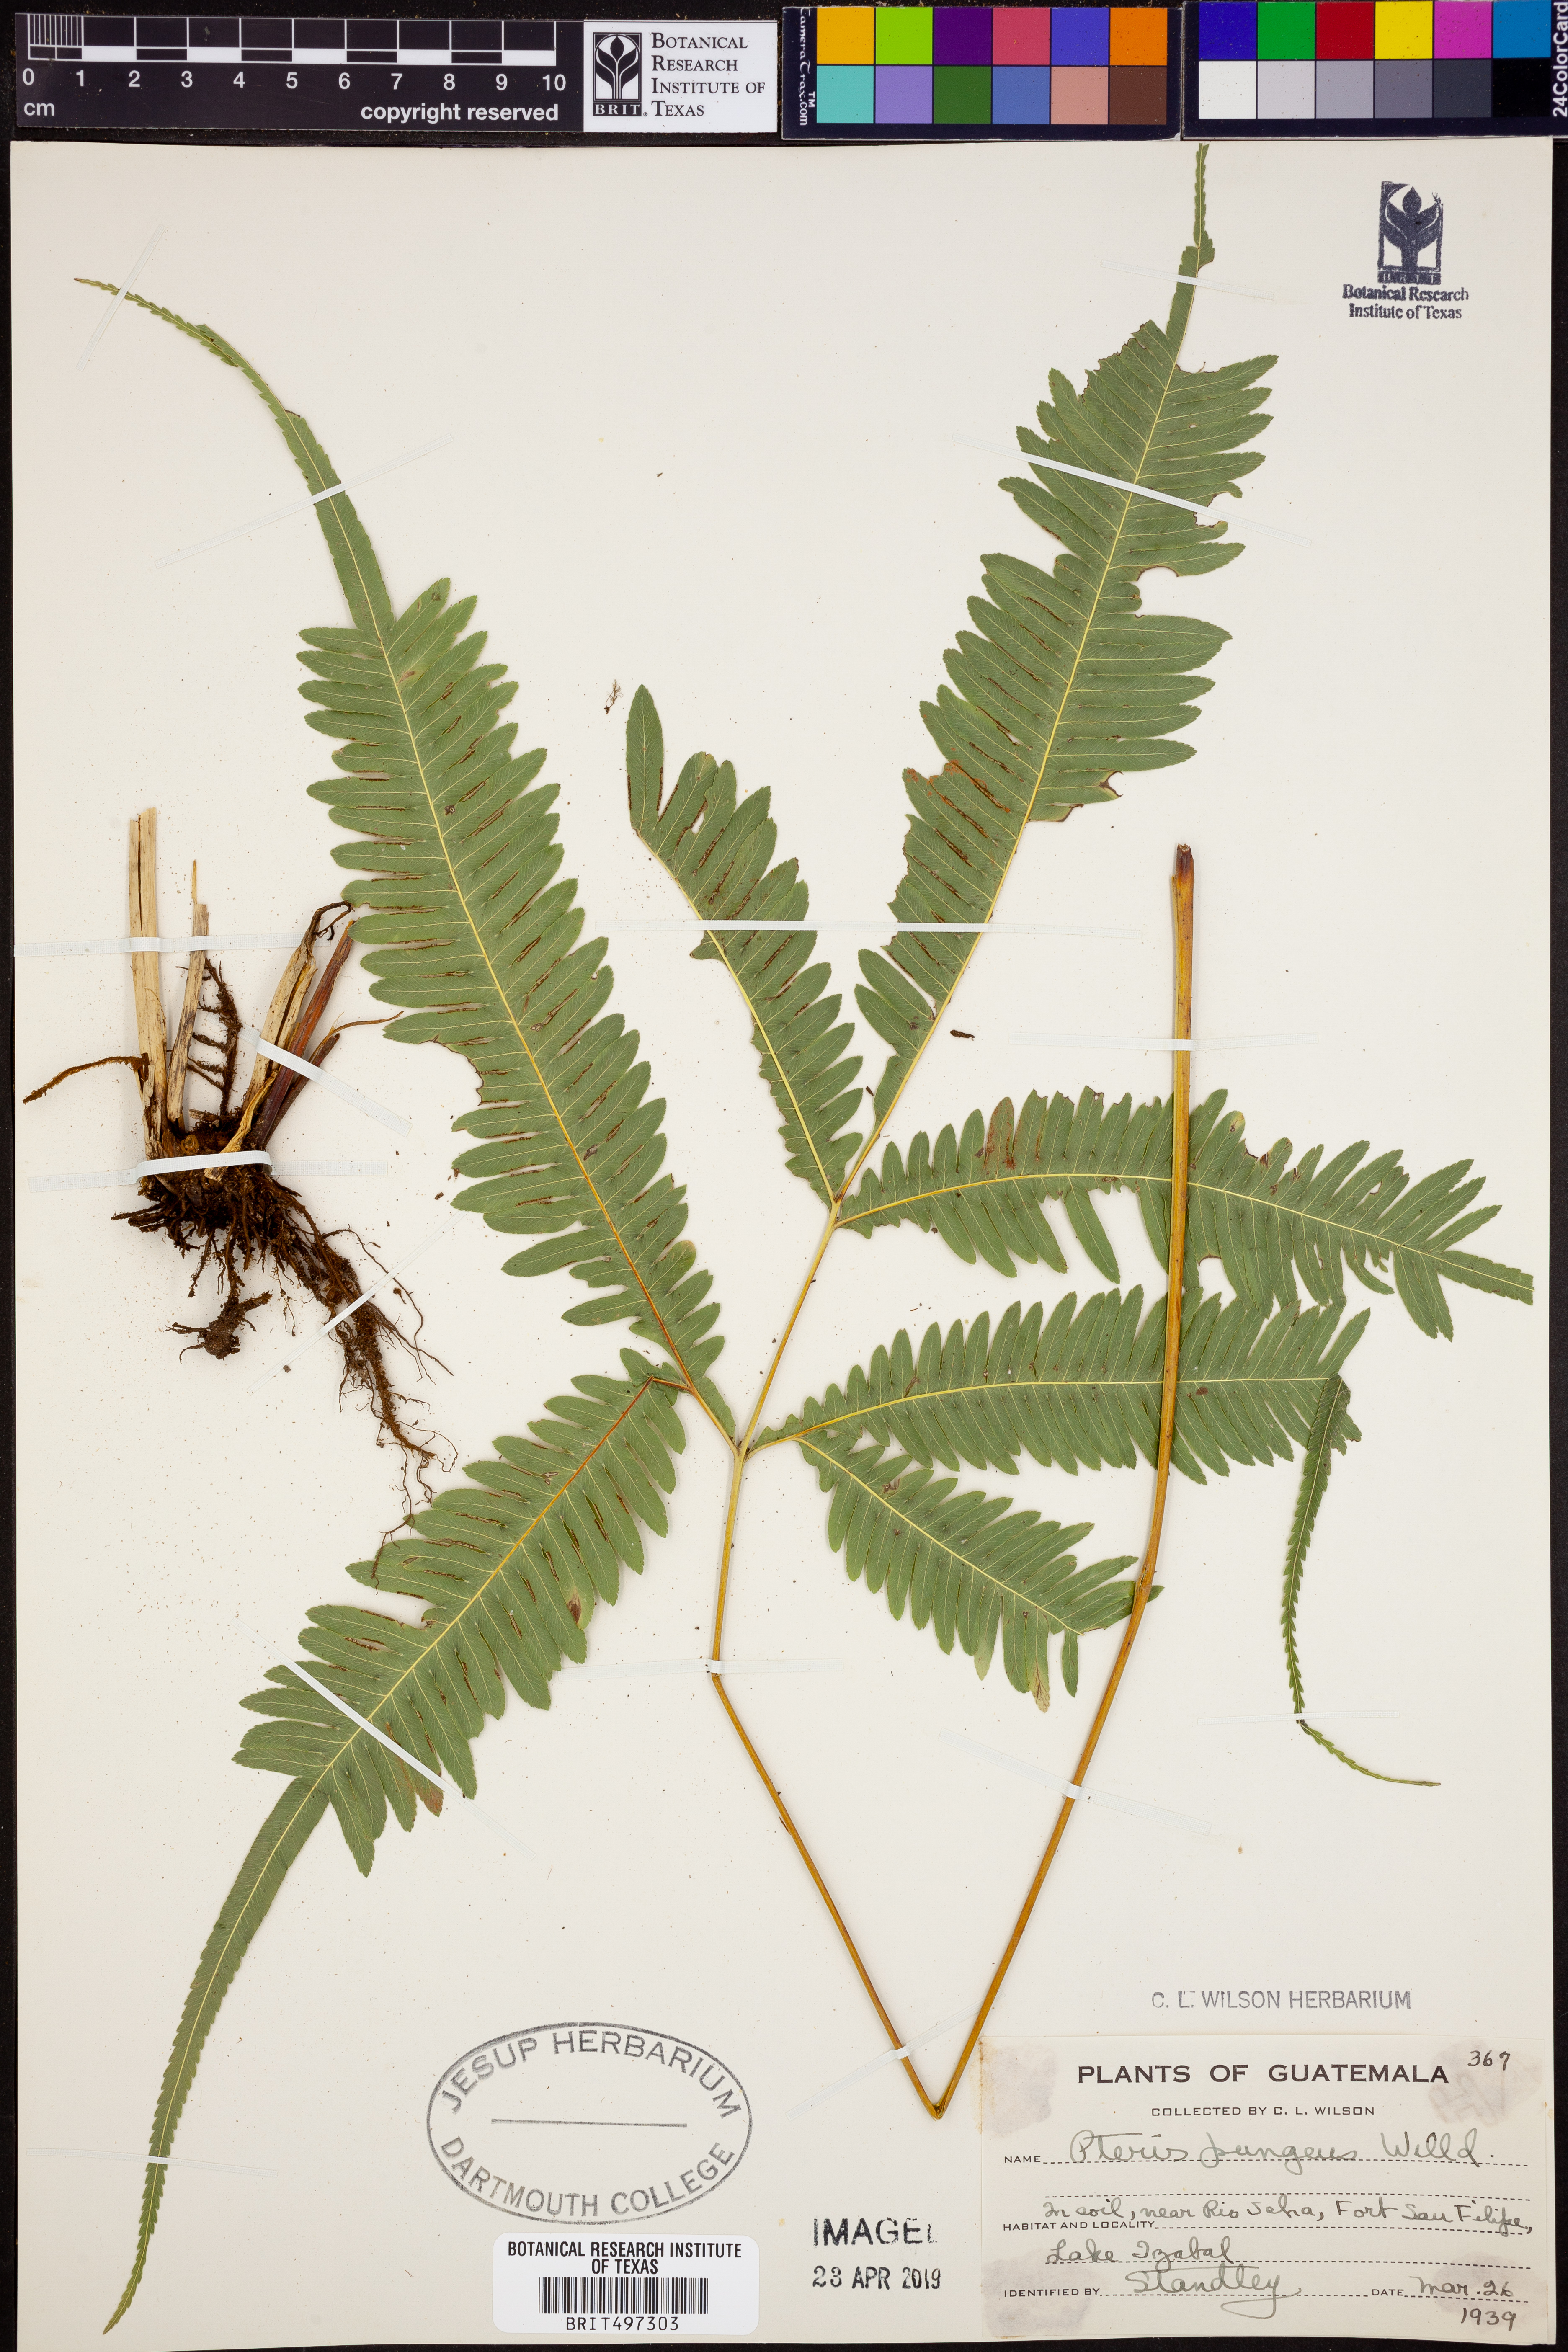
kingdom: Plantae
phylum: Tracheophyta
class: Polypodiopsida
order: Polypodiales
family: Pteridaceae
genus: Pteris
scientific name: Pteris pungens
